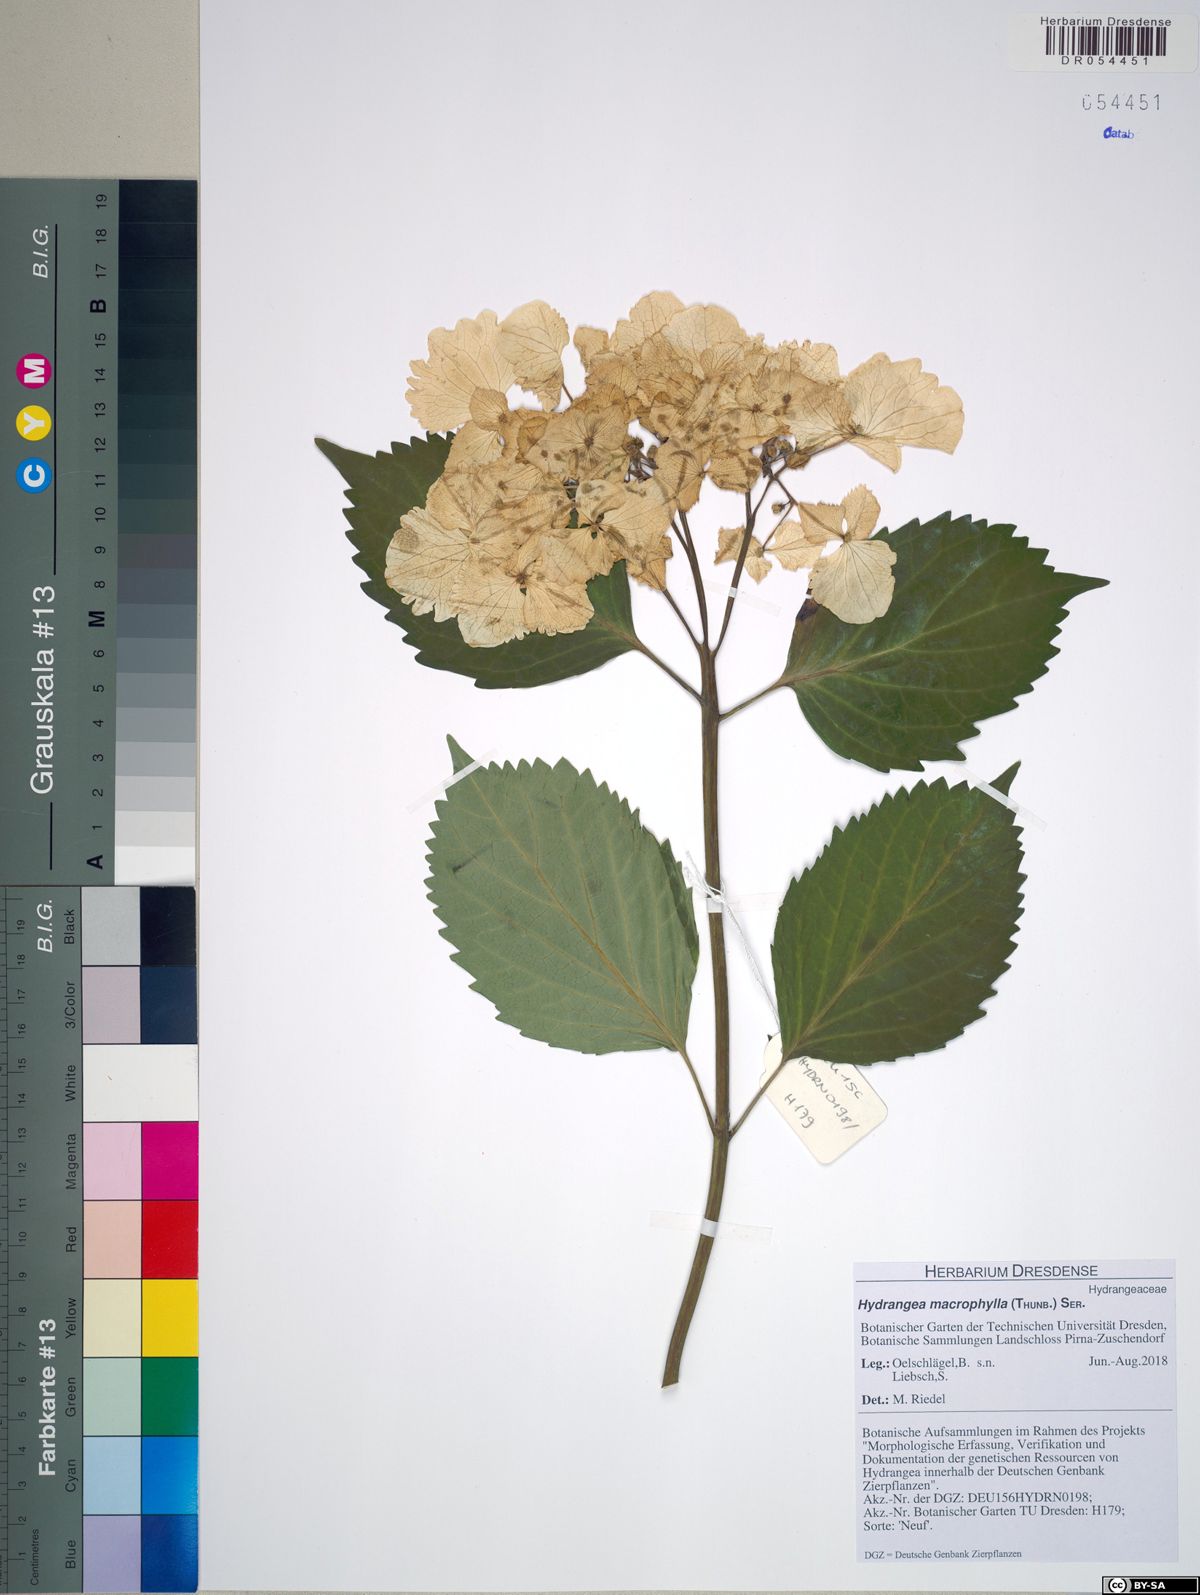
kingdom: Plantae
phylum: Tracheophyta
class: Magnoliopsida
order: Cornales
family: Hydrangeaceae
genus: Hydrangea
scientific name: Hydrangea macrophylla
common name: Hydrangea
